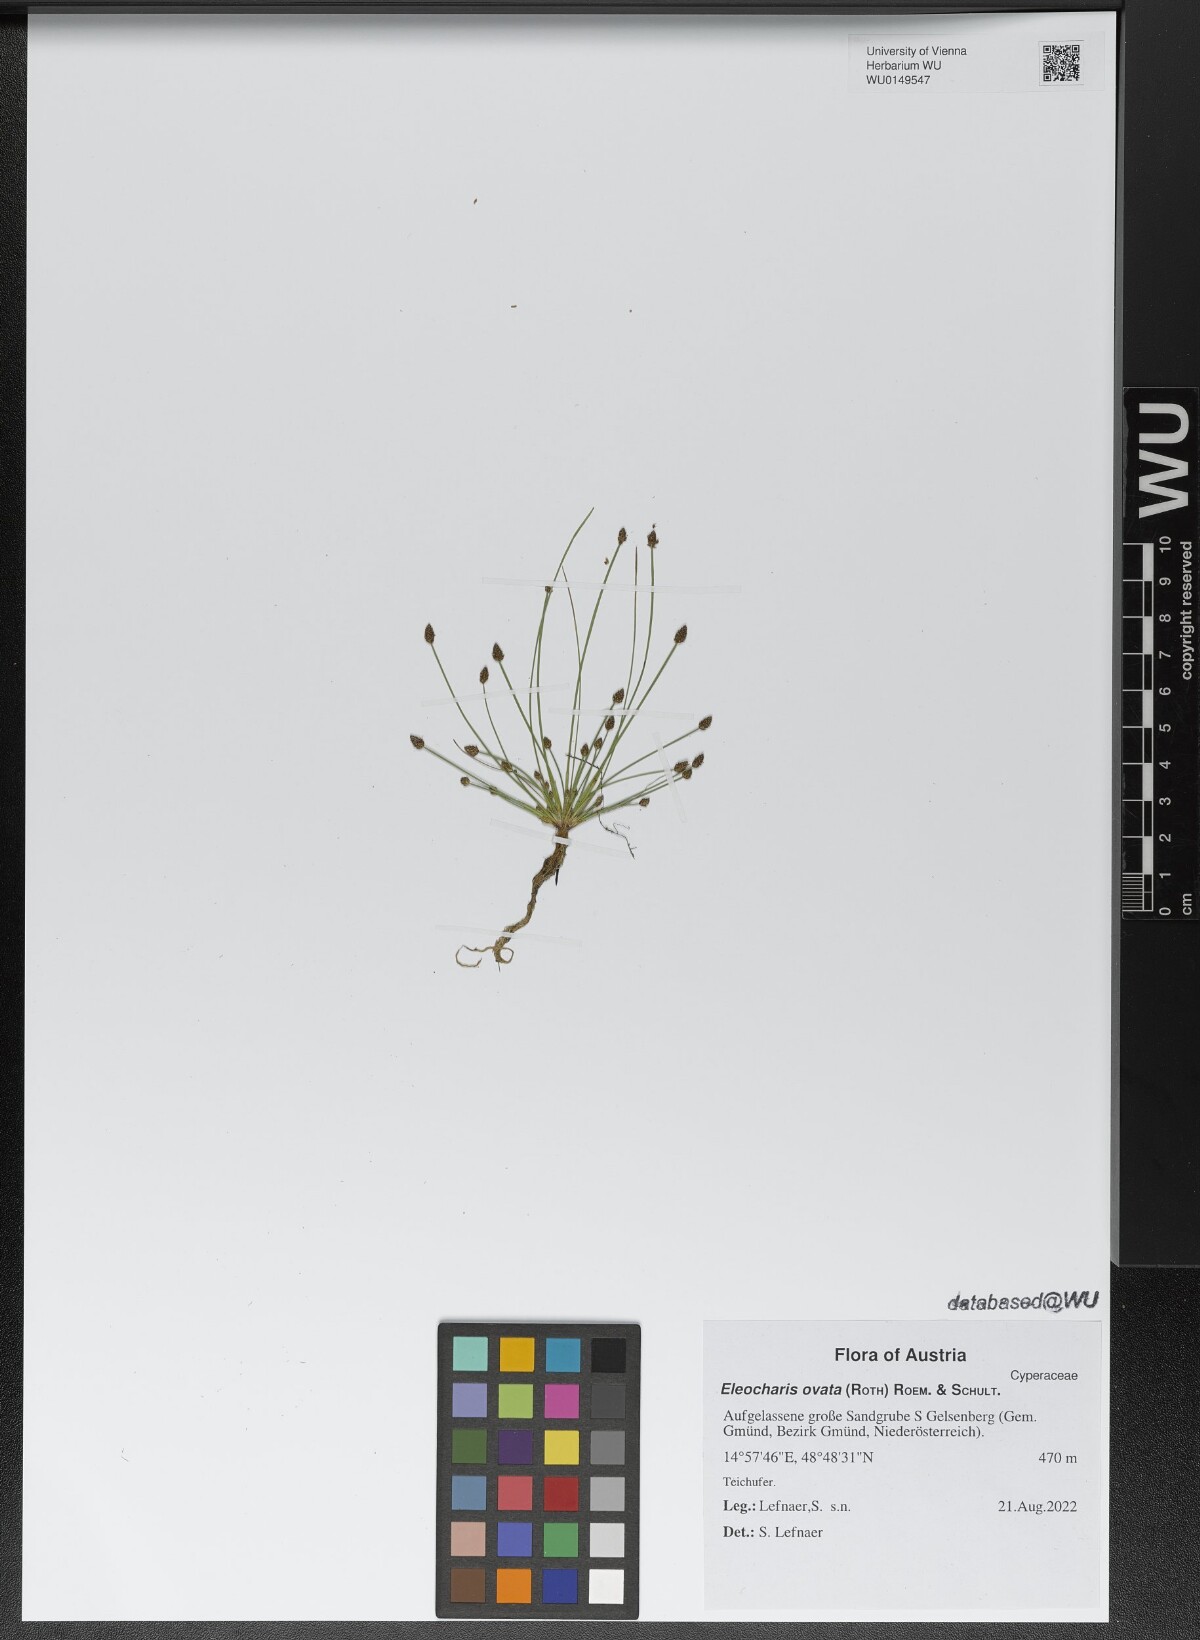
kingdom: Plantae
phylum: Tracheophyta
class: Liliopsida
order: Poales
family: Cyperaceae
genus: Eleocharis
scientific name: Eleocharis ovata
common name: Oval spike-rush
